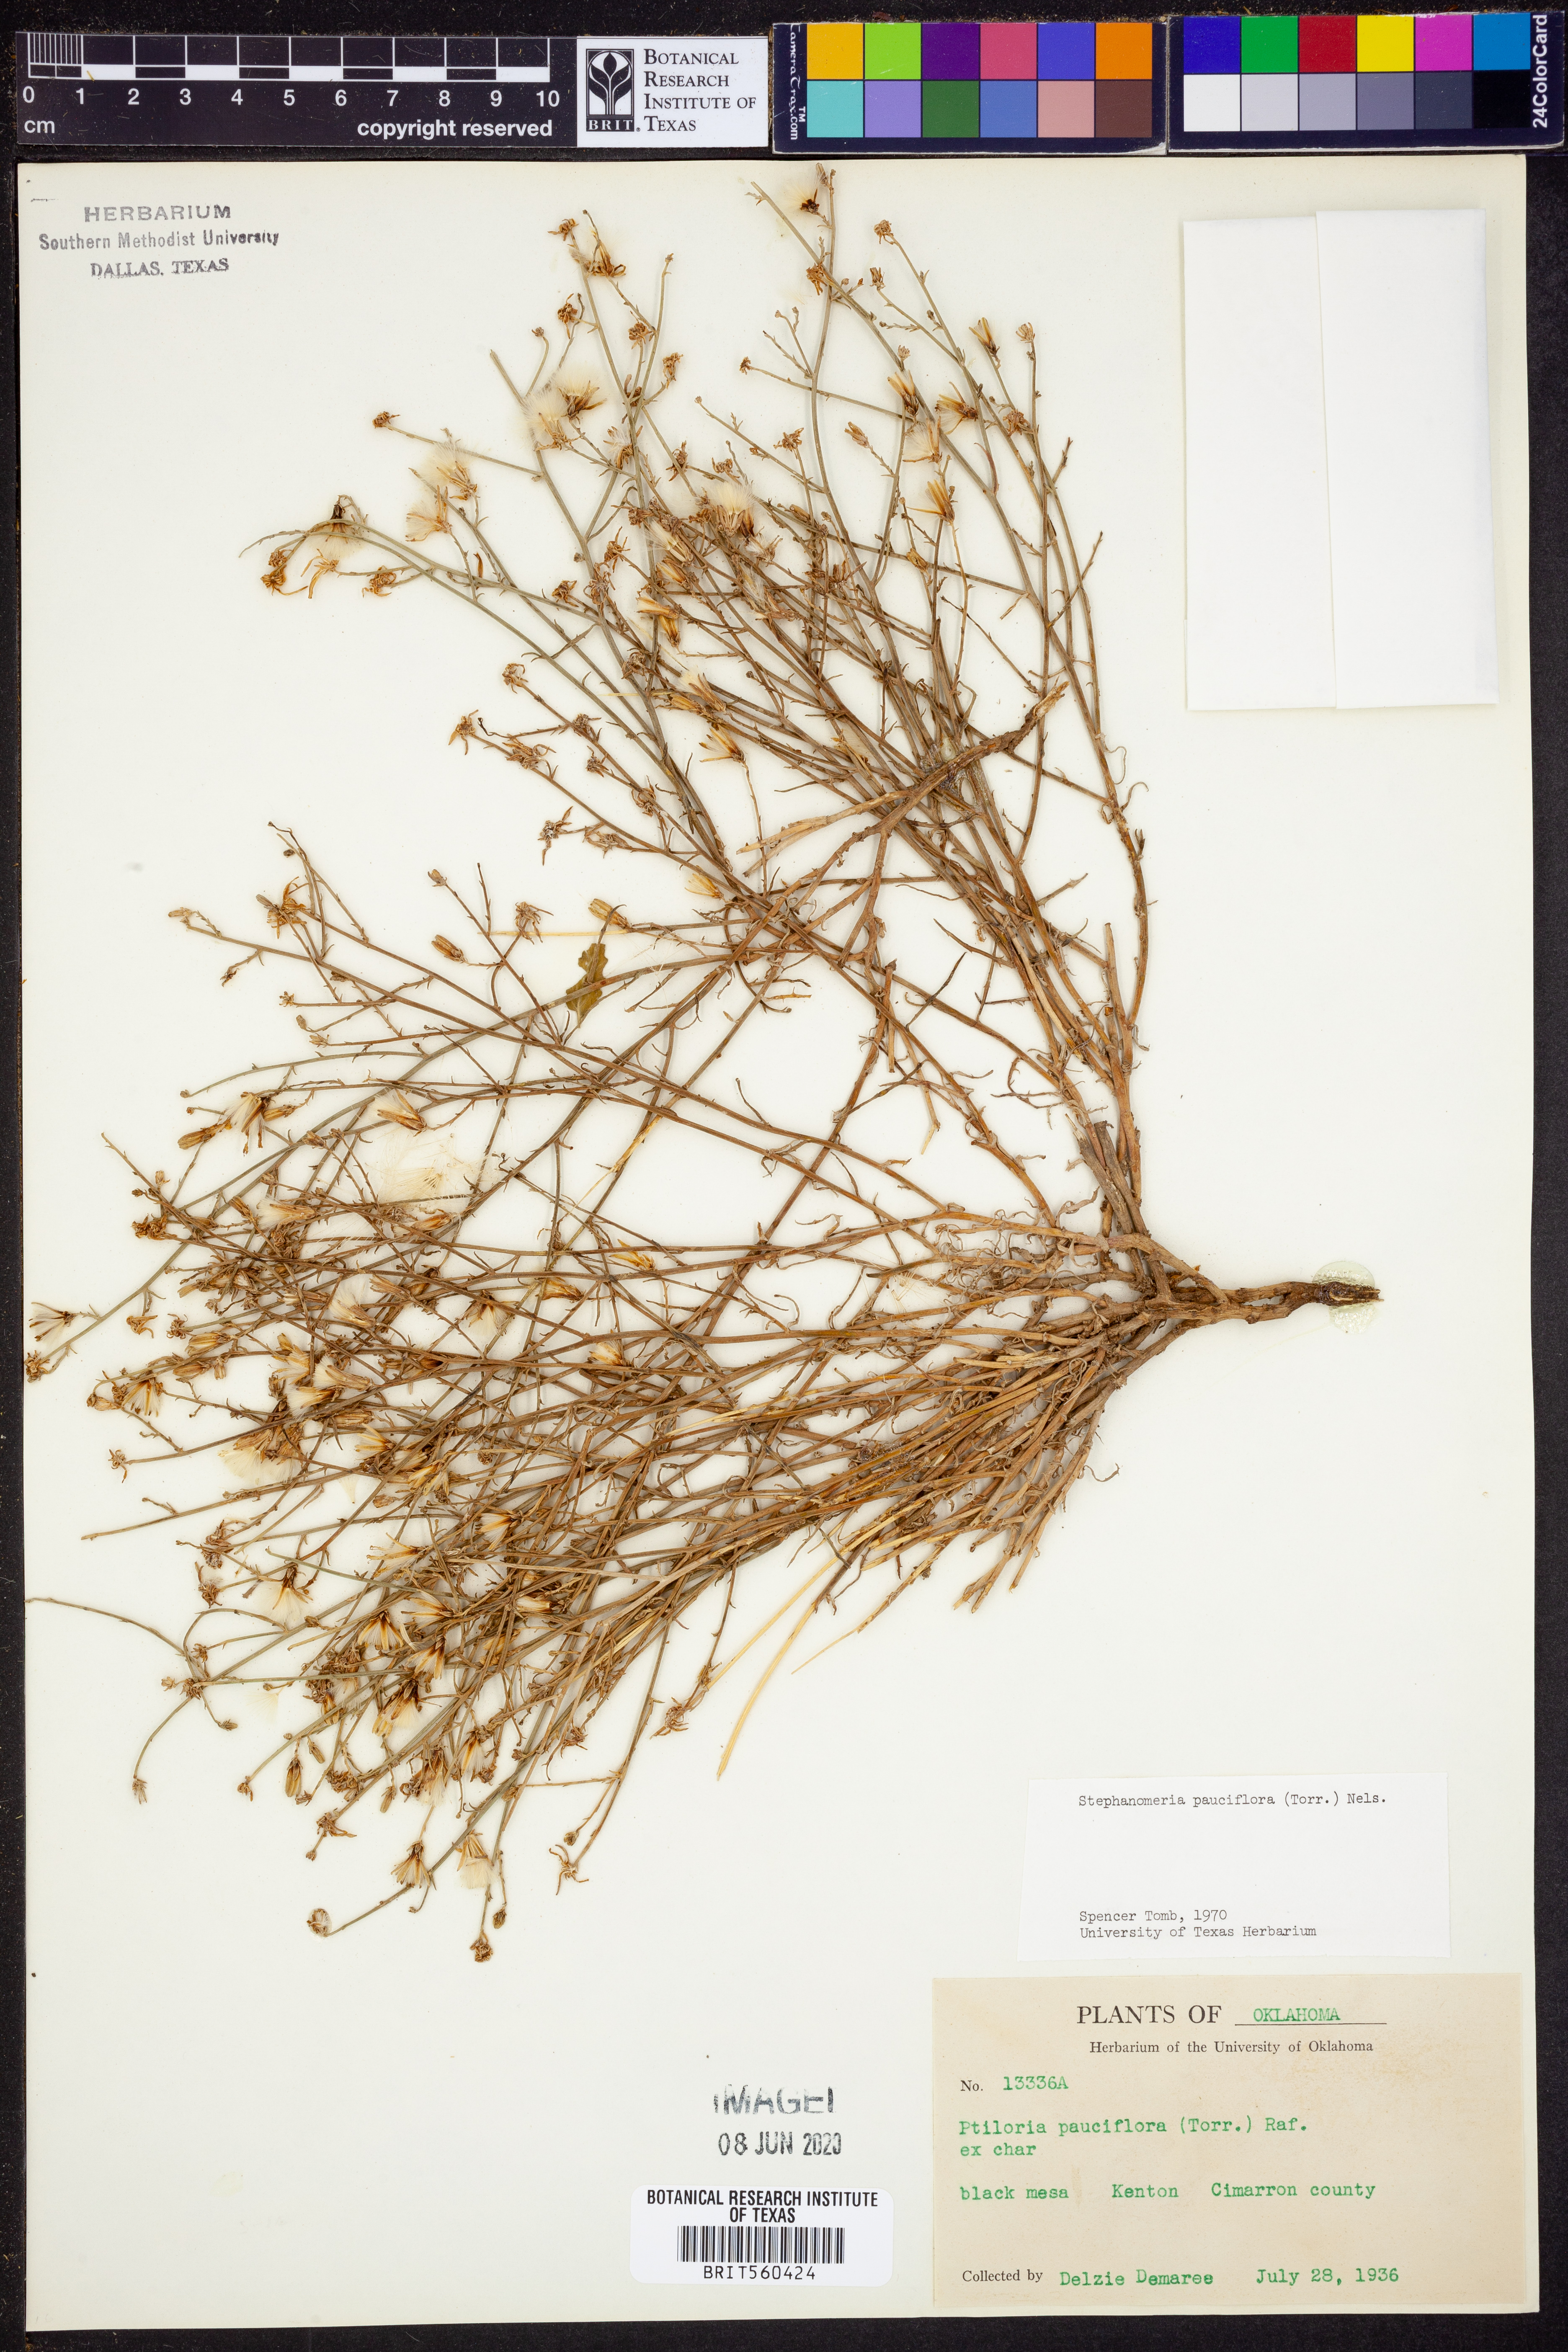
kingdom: Plantae
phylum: Tracheophyta
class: Magnoliopsida
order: Asterales
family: Asteraceae
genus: Stephanomeria
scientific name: Stephanomeria pauciflora
